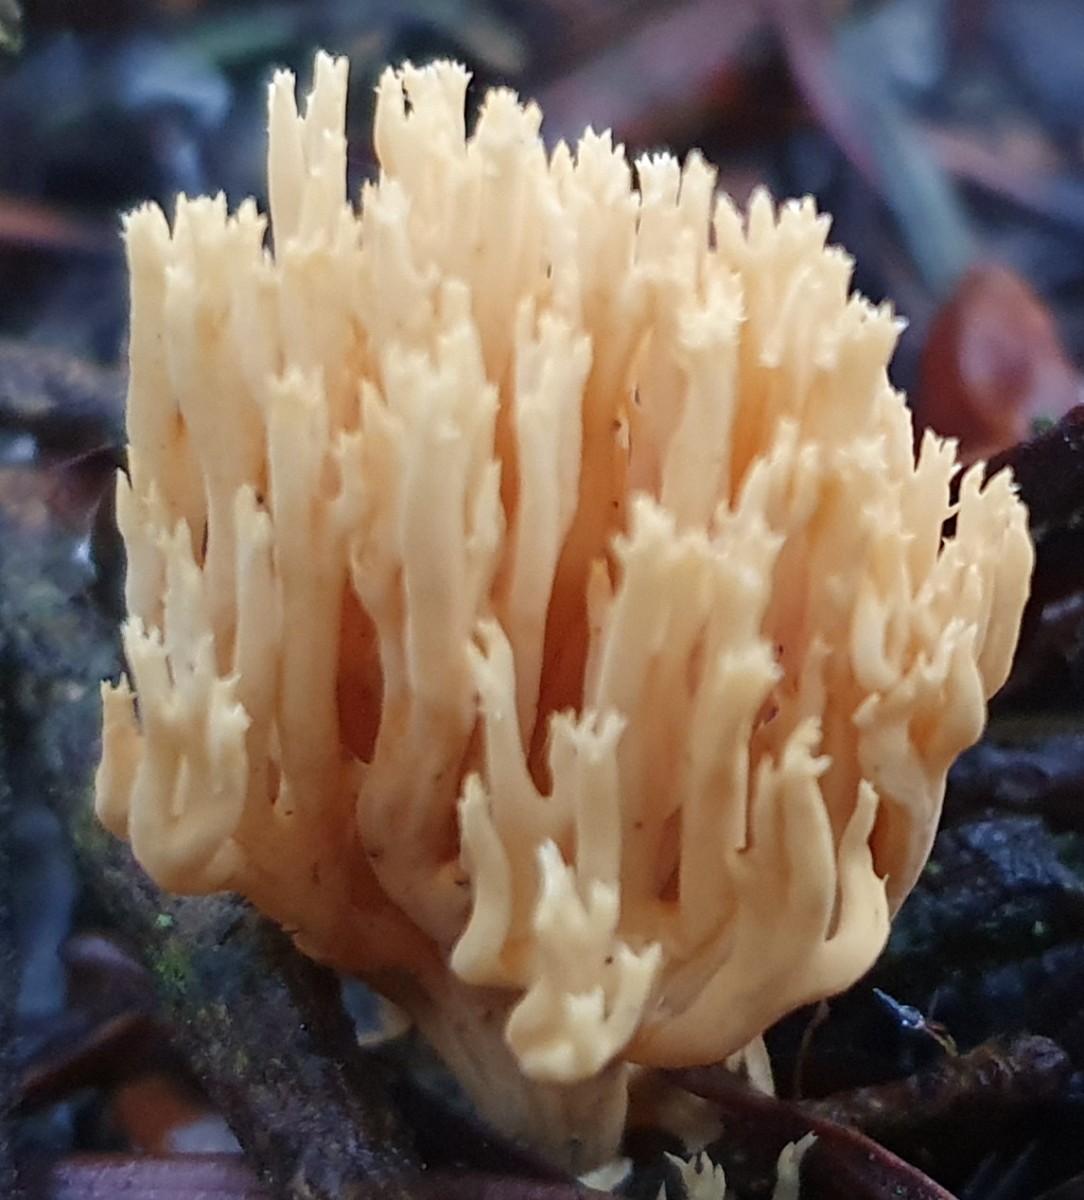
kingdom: Fungi
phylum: Basidiomycota
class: Agaricomycetes
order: Gomphales
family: Gomphaceae
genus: Phaeoclavulina
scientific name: Phaeoclavulina eumorpha
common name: gran-koralsvamp
